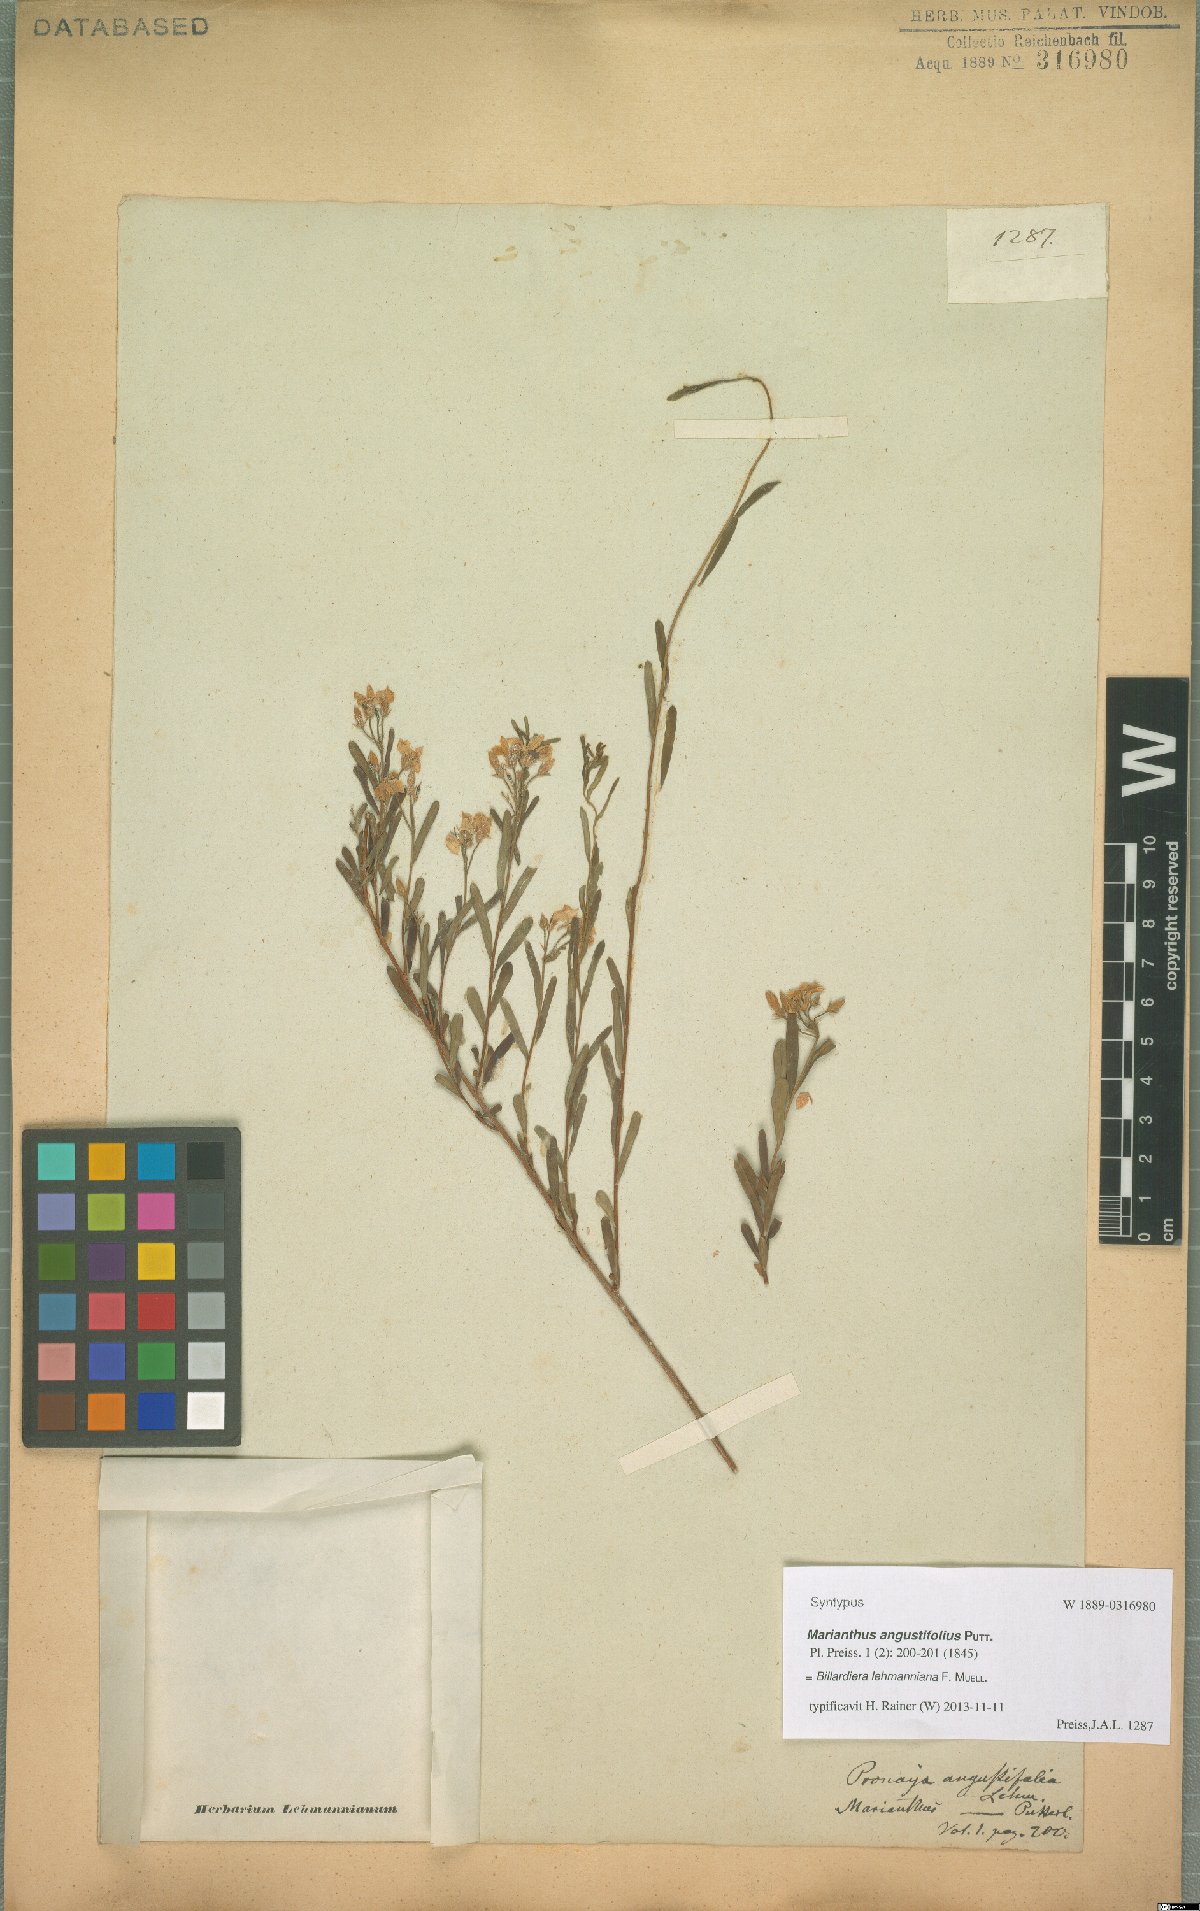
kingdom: Plantae
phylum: Tracheophyta
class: Magnoliopsida
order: Apiales
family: Pittosporaceae
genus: Billardiera
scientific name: Billardiera lehmanniana
